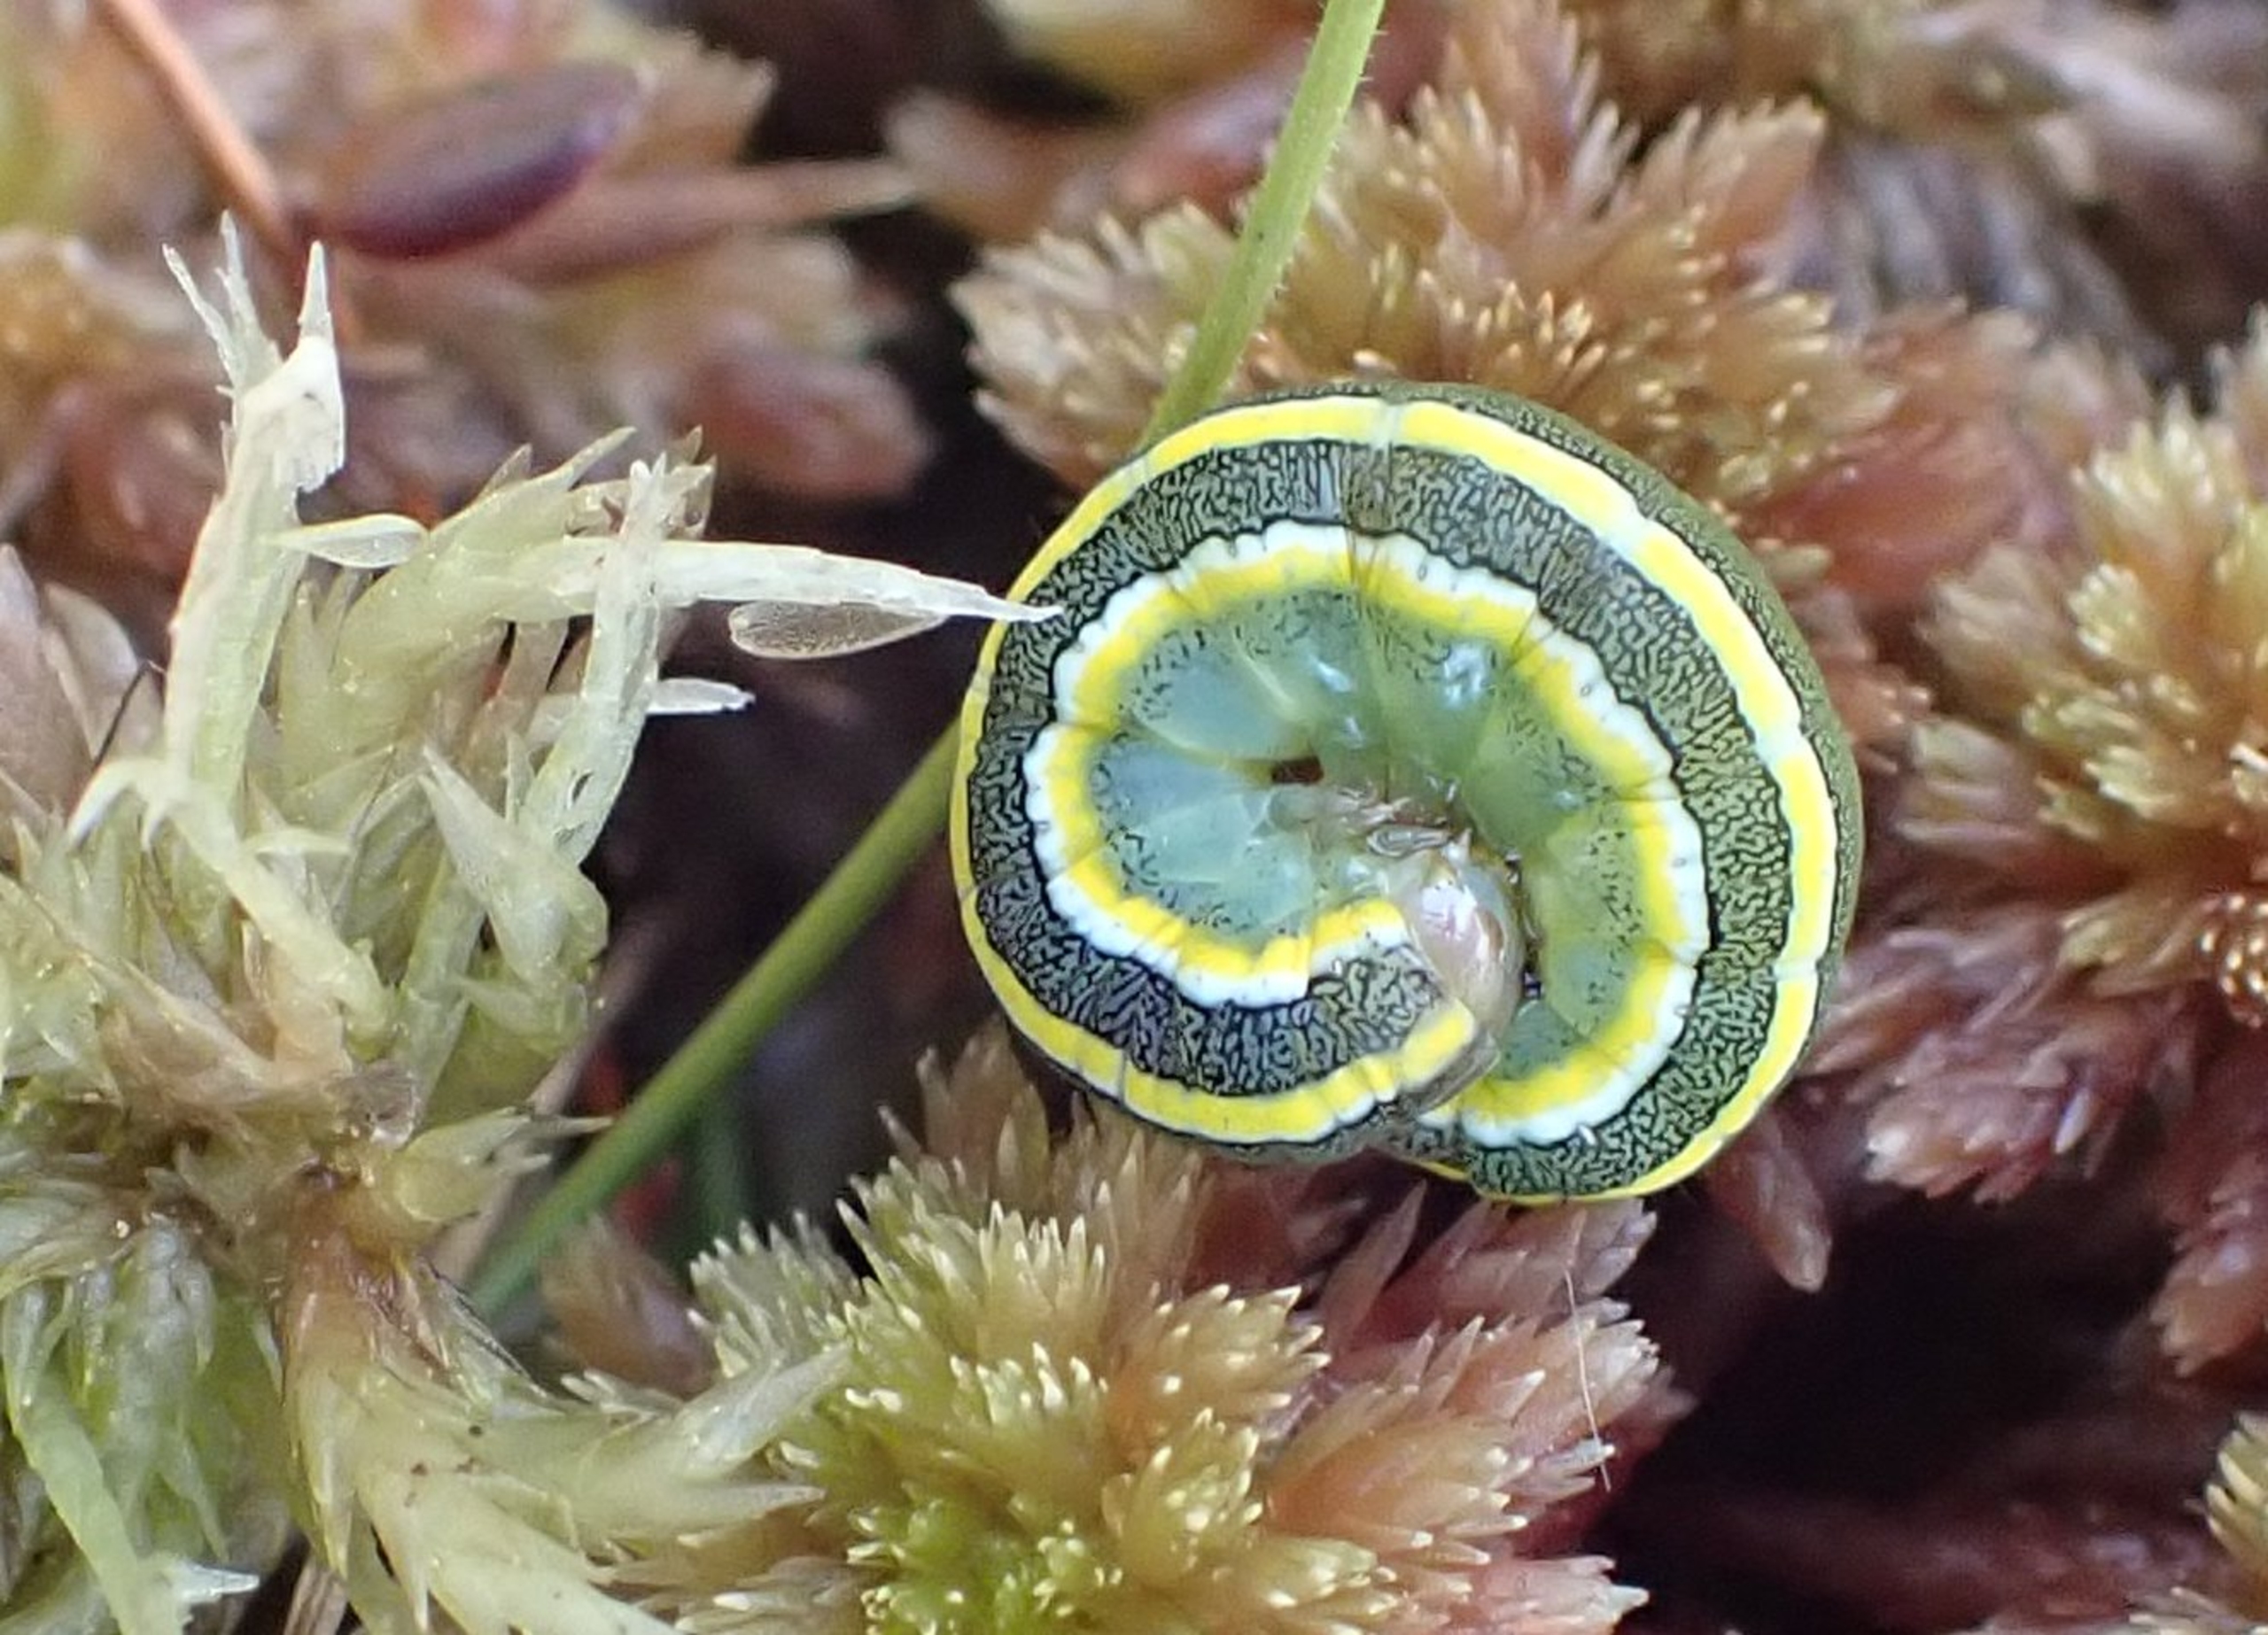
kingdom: Animalia
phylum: Arthropoda
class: Insecta
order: Lepidoptera
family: Noctuidae
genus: Ceramica
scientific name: Ceramica pisi
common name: Ærteugle
